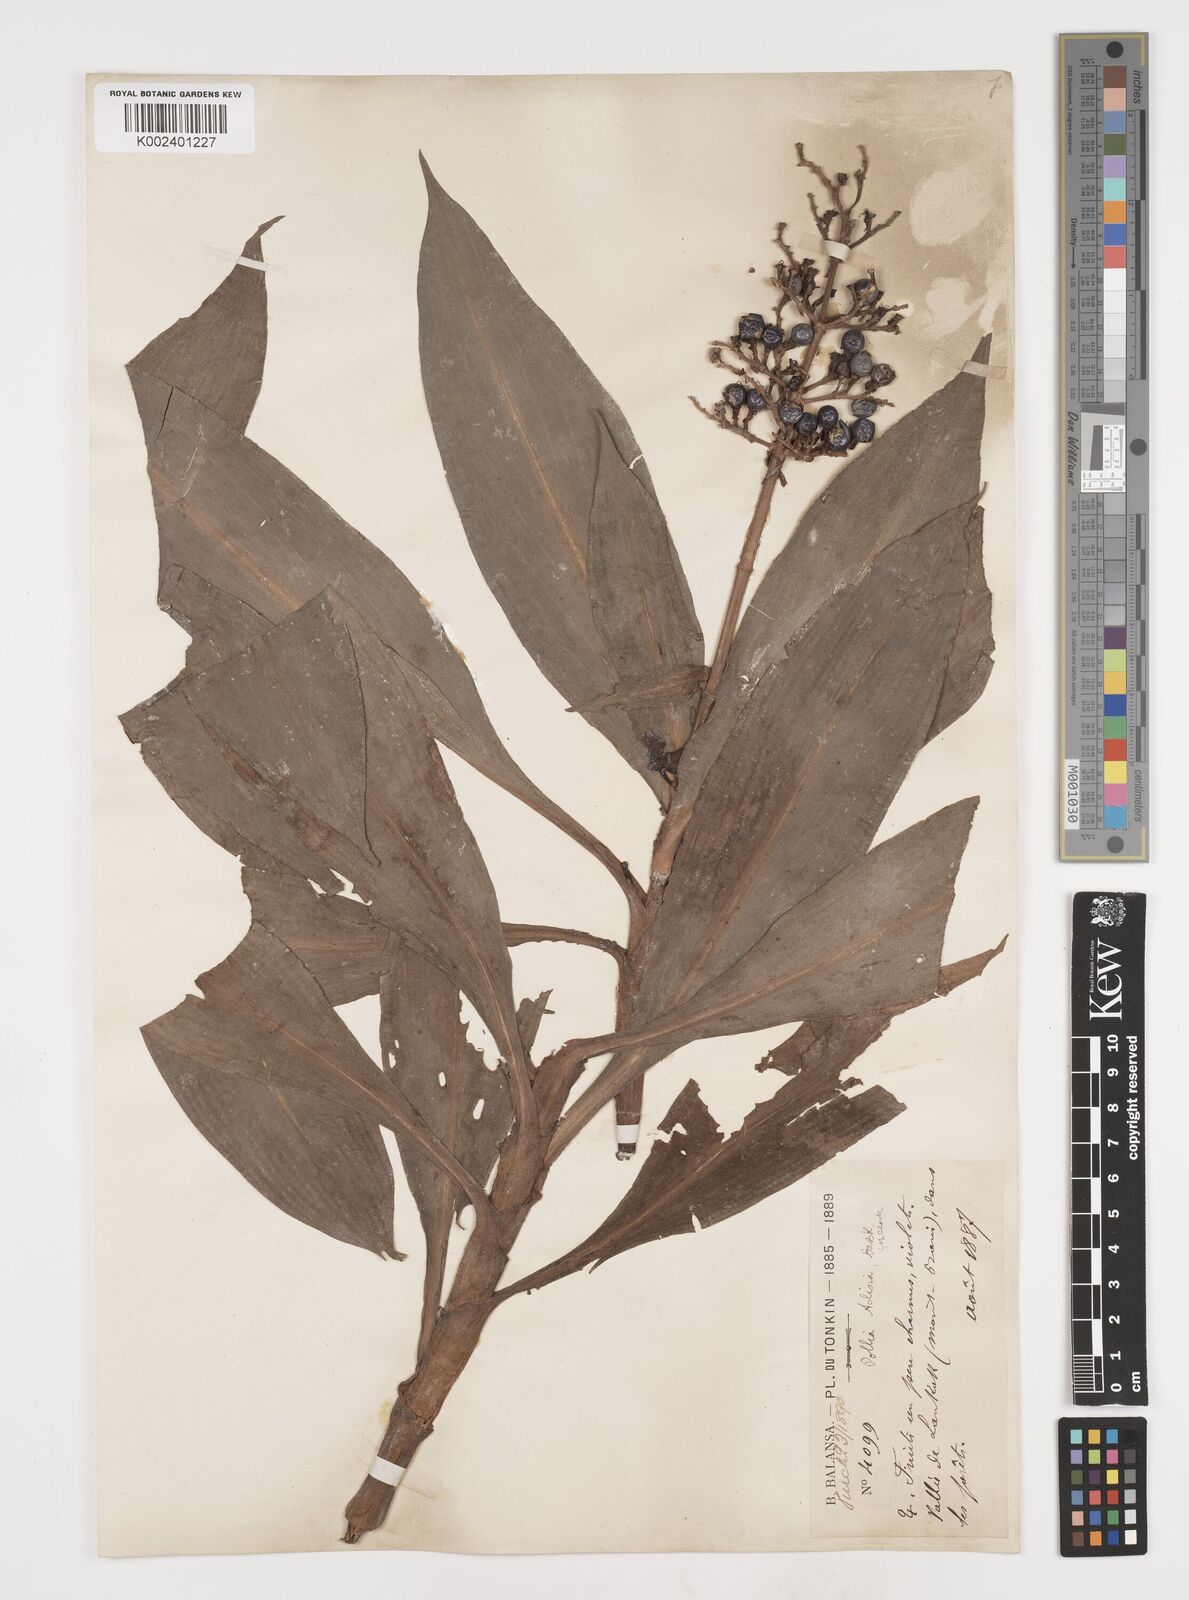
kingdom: Plantae
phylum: Tracheophyta
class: Liliopsida
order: Commelinales
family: Commelinaceae
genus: Pollia
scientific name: Pollia hasskarlii
